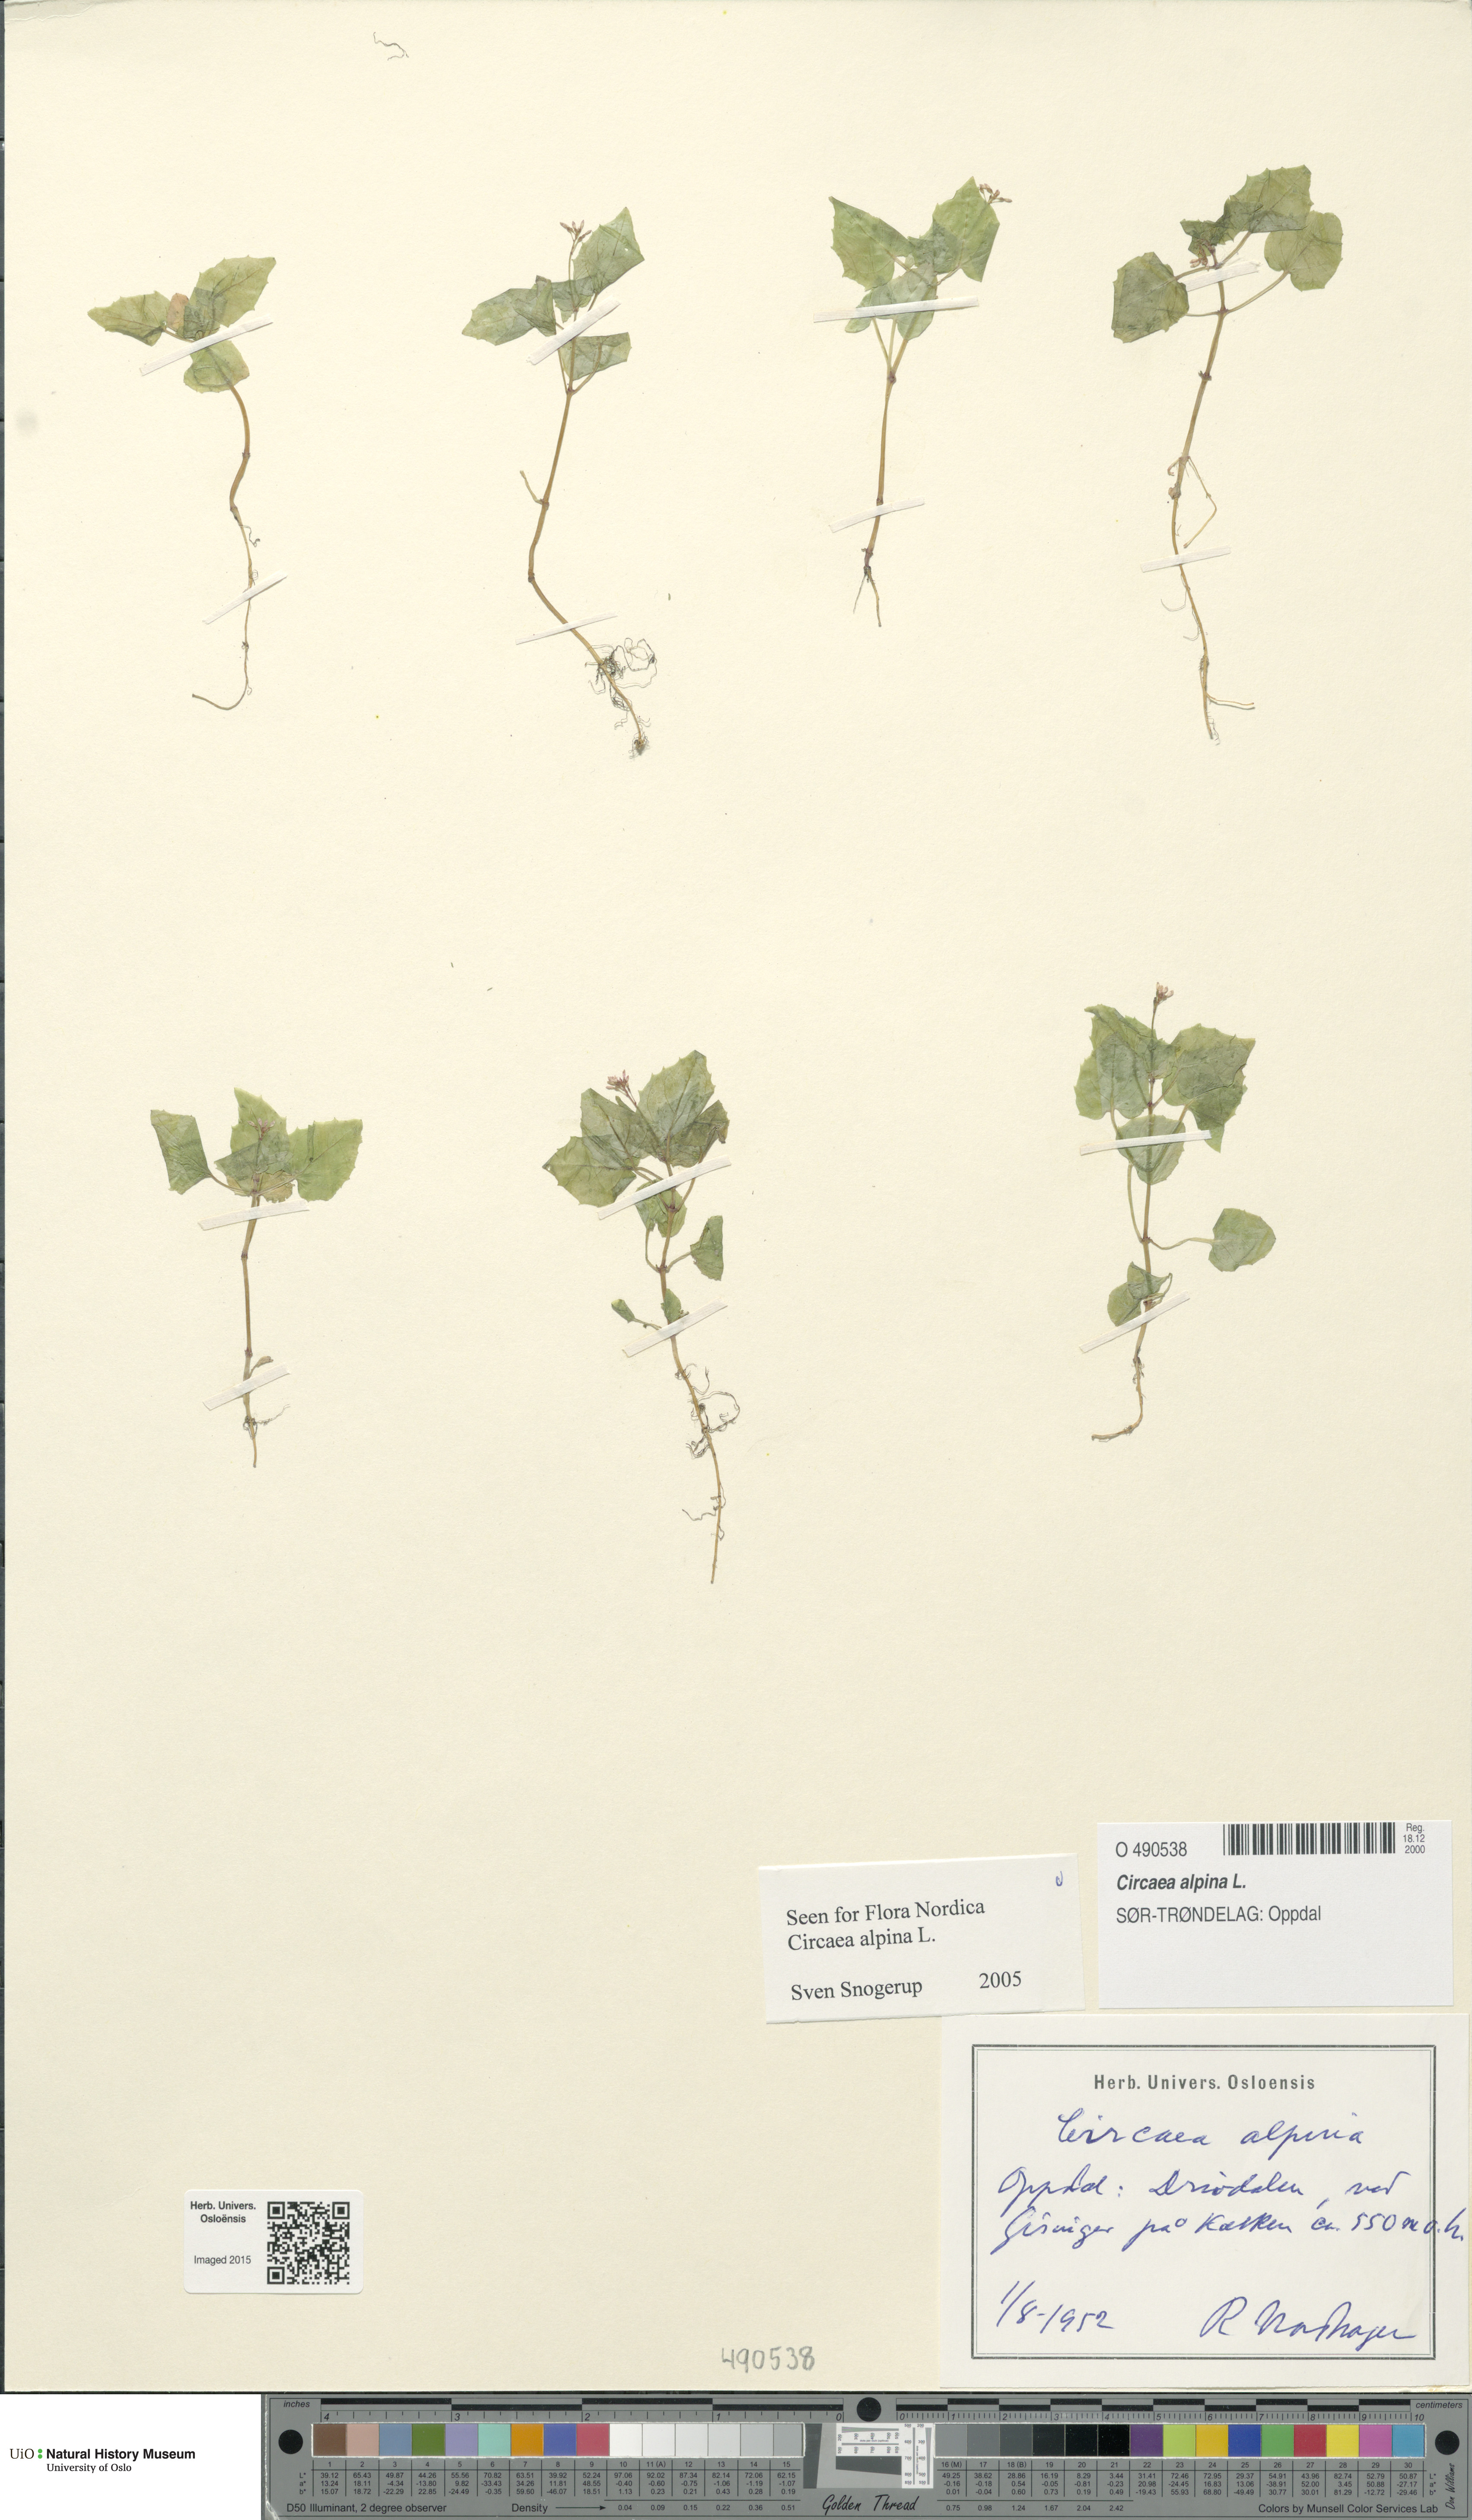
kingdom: Plantae
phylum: Tracheophyta
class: Magnoliopsida
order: Myrtales
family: Onagraceae
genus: Circaea
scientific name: Circaea alpina
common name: Alpine enchanter's-nightshade
